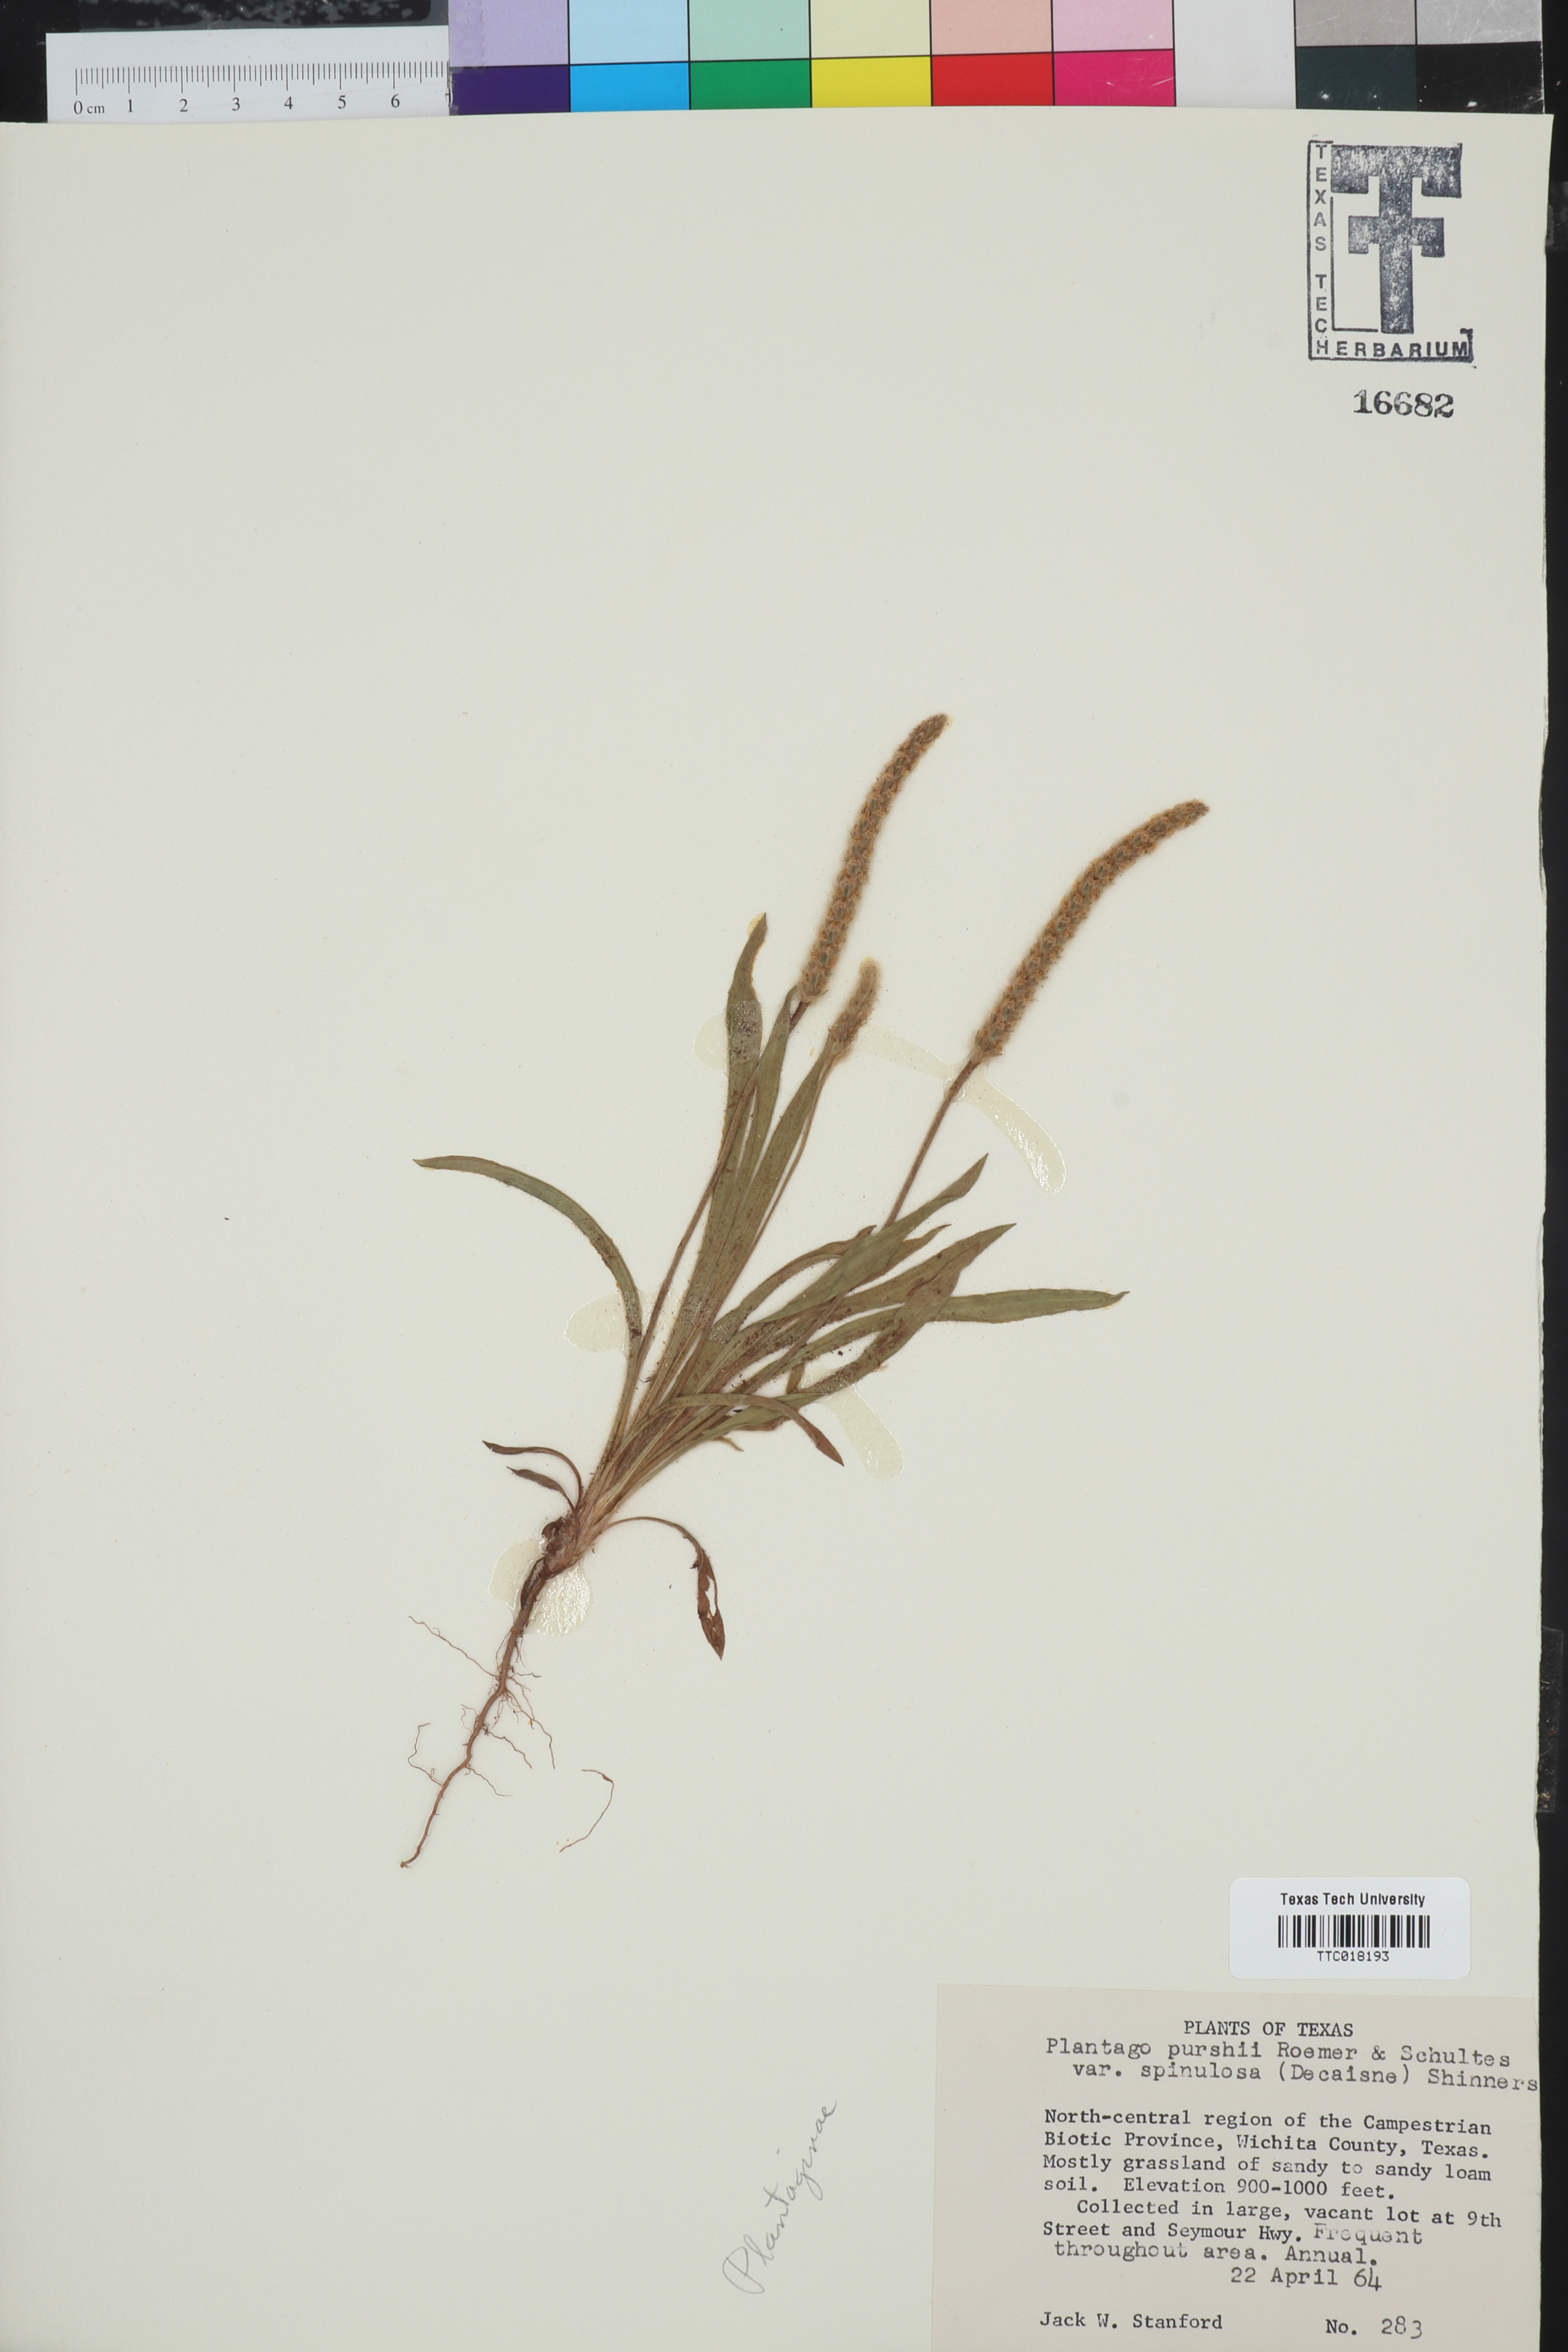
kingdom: Plantae
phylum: Tracheophyta
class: Magnoliopsida
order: Lamiales
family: Plantaginaceae
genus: Plantago
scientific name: Plantago patagonica
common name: Patagonia indian-wheat
